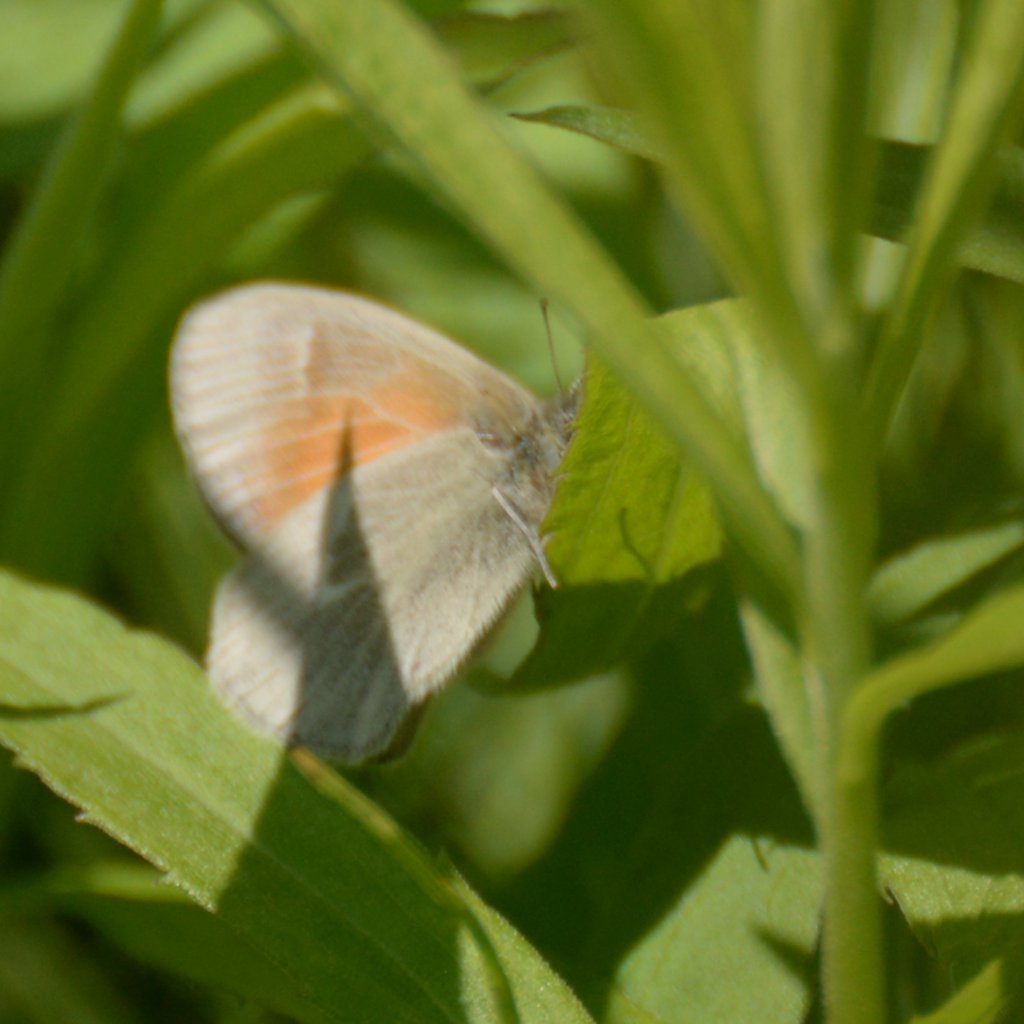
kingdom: Animalia
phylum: Arthropoda
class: Insecta
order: Lepidoptera
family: Nymphalidae
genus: Coenonympha
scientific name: Coenonympha tullia
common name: Large Heath
